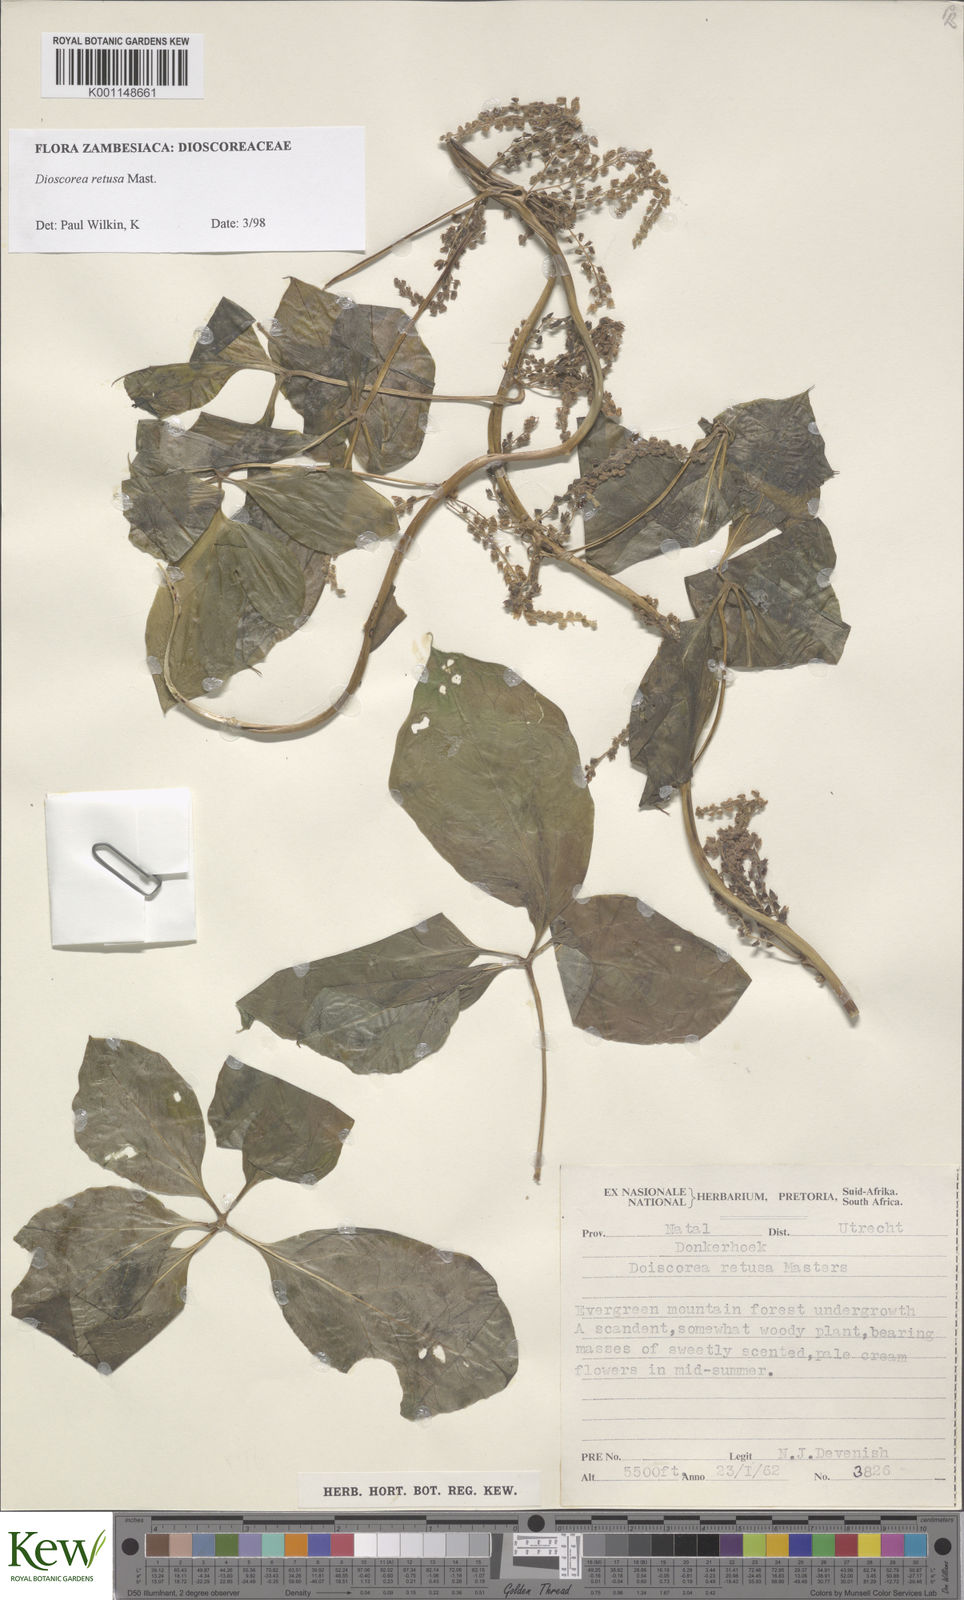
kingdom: Plantae
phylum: Tracheophyta
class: Liliopsida
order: Dioscoreales
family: Dioscoreaceae
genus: Dioscorea
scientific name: Dioscorea retusa
